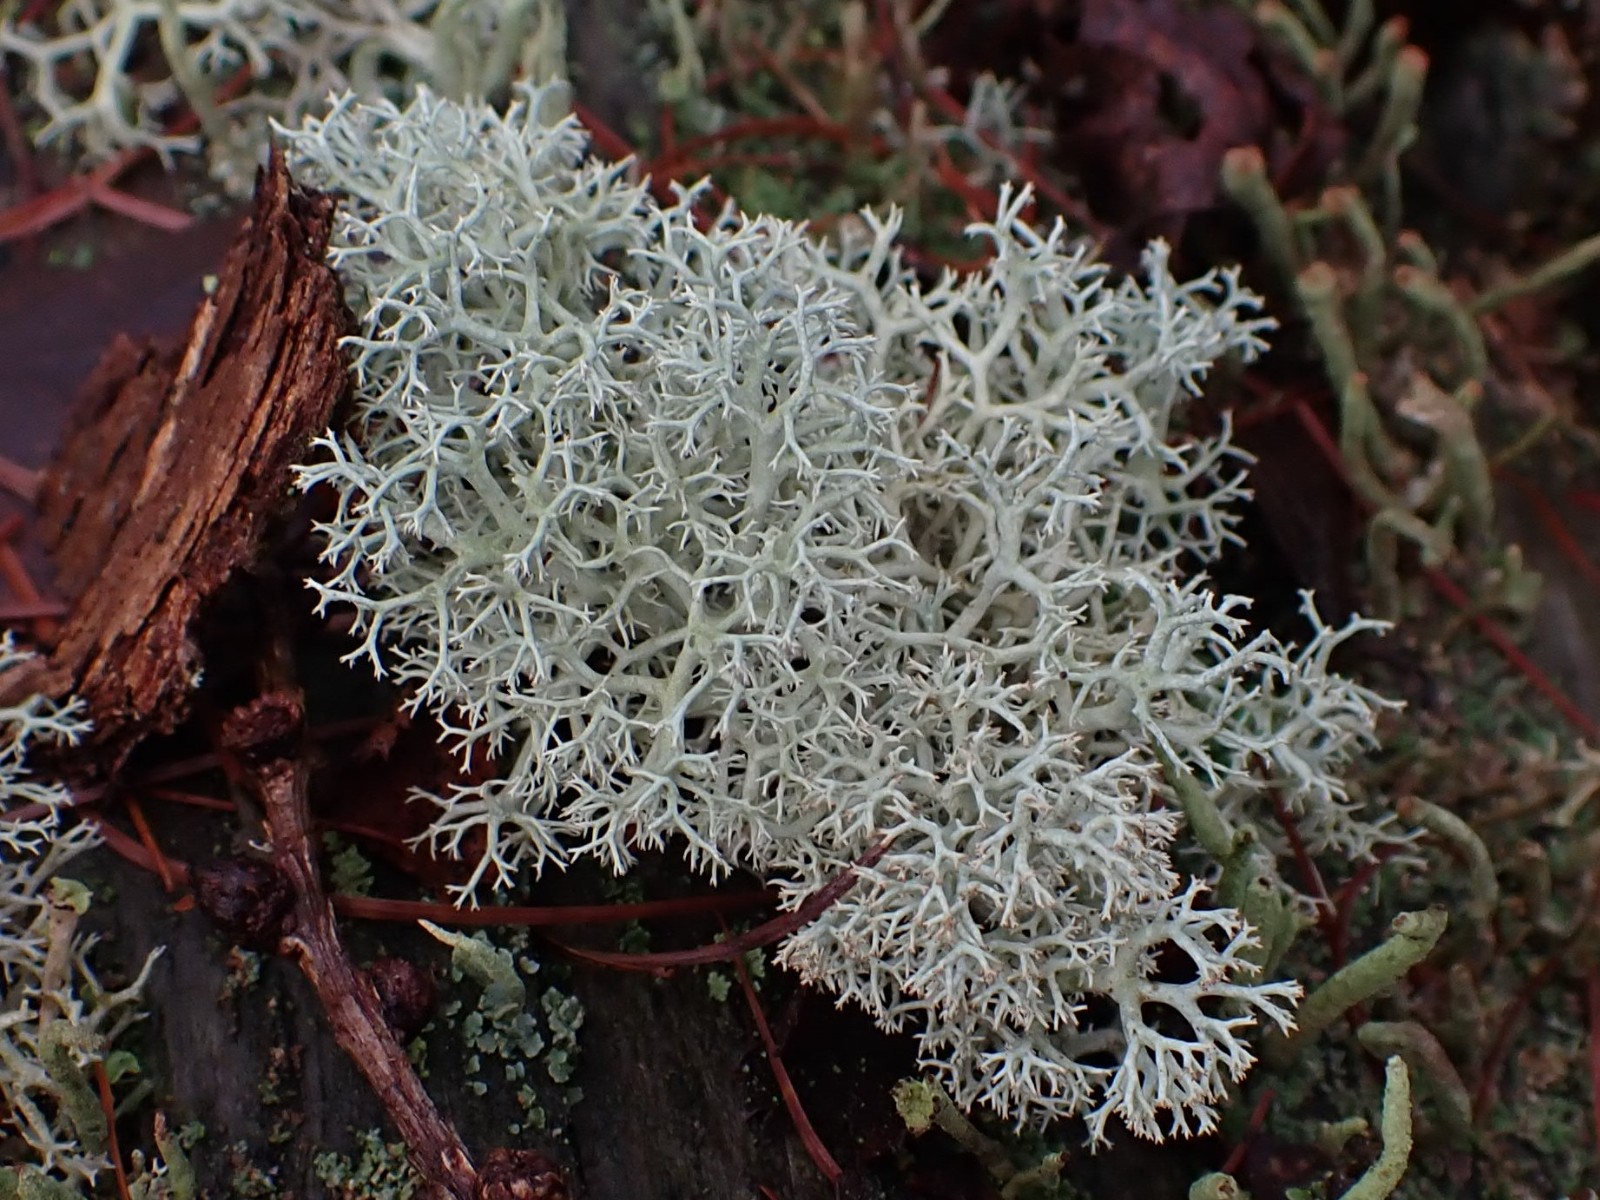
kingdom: Fungi
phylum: Ascomycota
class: Lecanoromycetes
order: Lecanorales
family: Cladoniaceae
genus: Cladonia
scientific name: Cladonia portentosa
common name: hede-rensdyrlav
